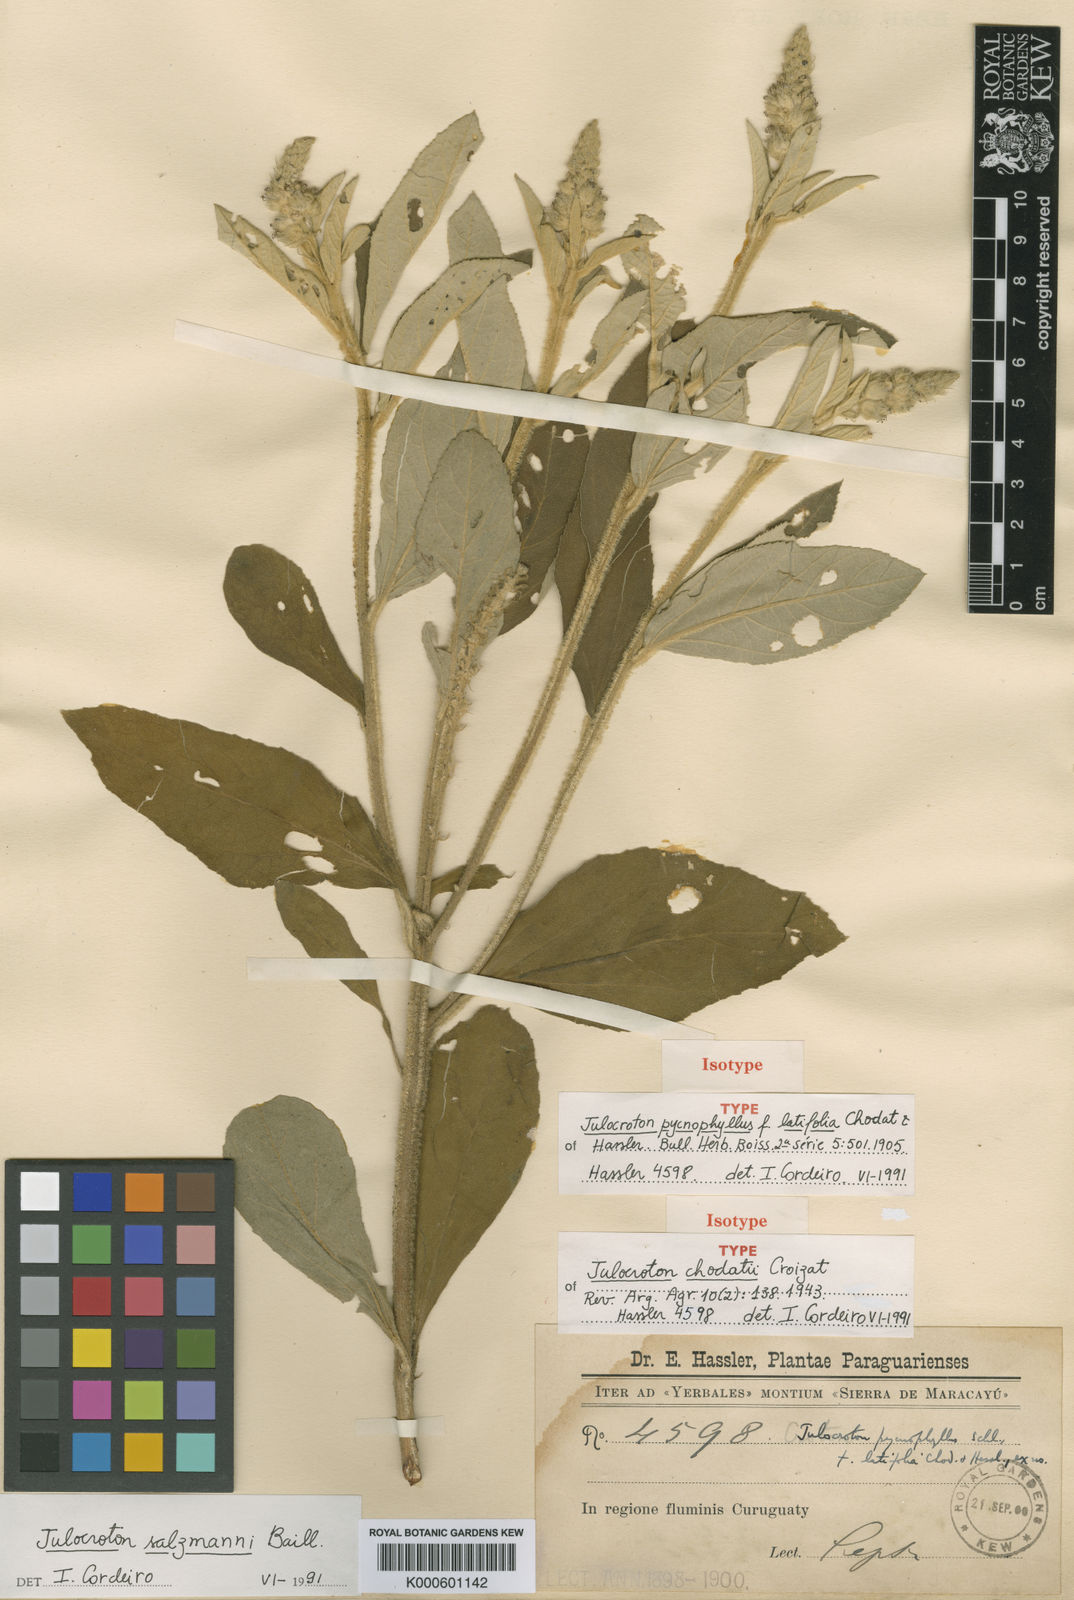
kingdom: Plantae
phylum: Tracheophyta
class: Magnoliopsida
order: Malpighiales
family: Euphorbiaceae
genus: Croton
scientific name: Croton salzmannii
